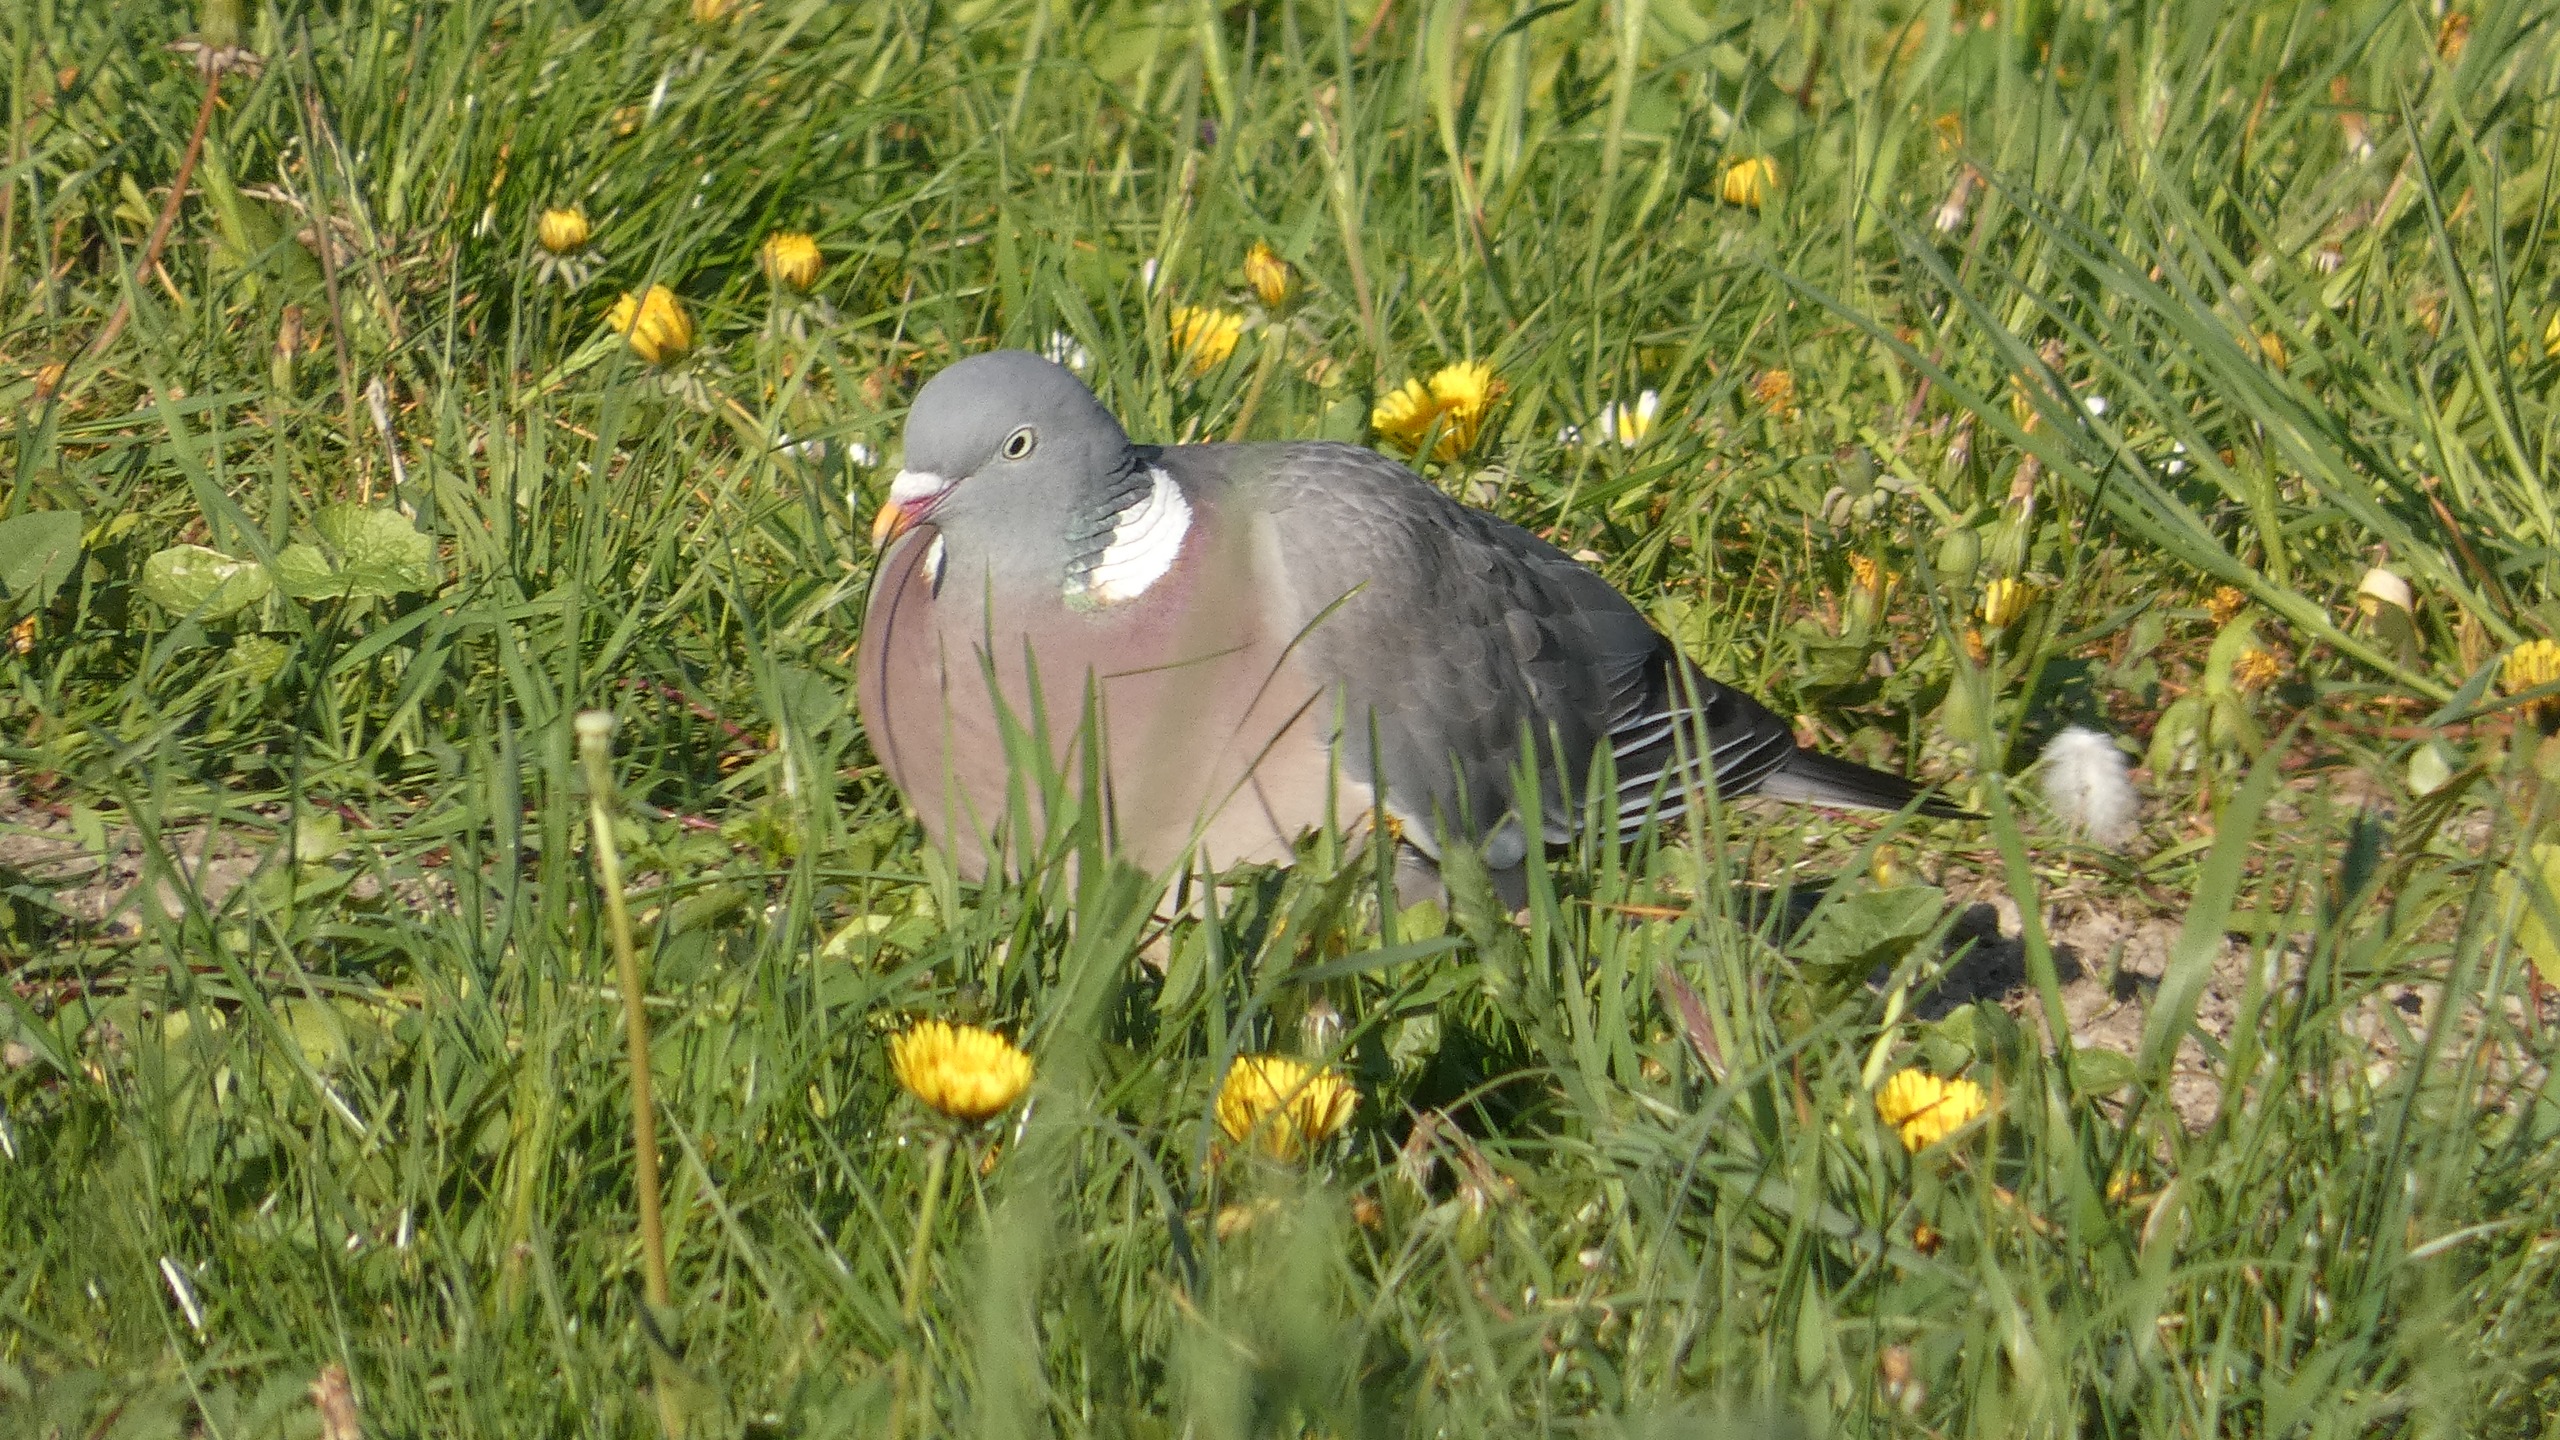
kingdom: Animalia
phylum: Chordata
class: Aves
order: Columbiformes
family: Columbidae
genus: Columba
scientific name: Columba palumbus
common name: Ringdue
